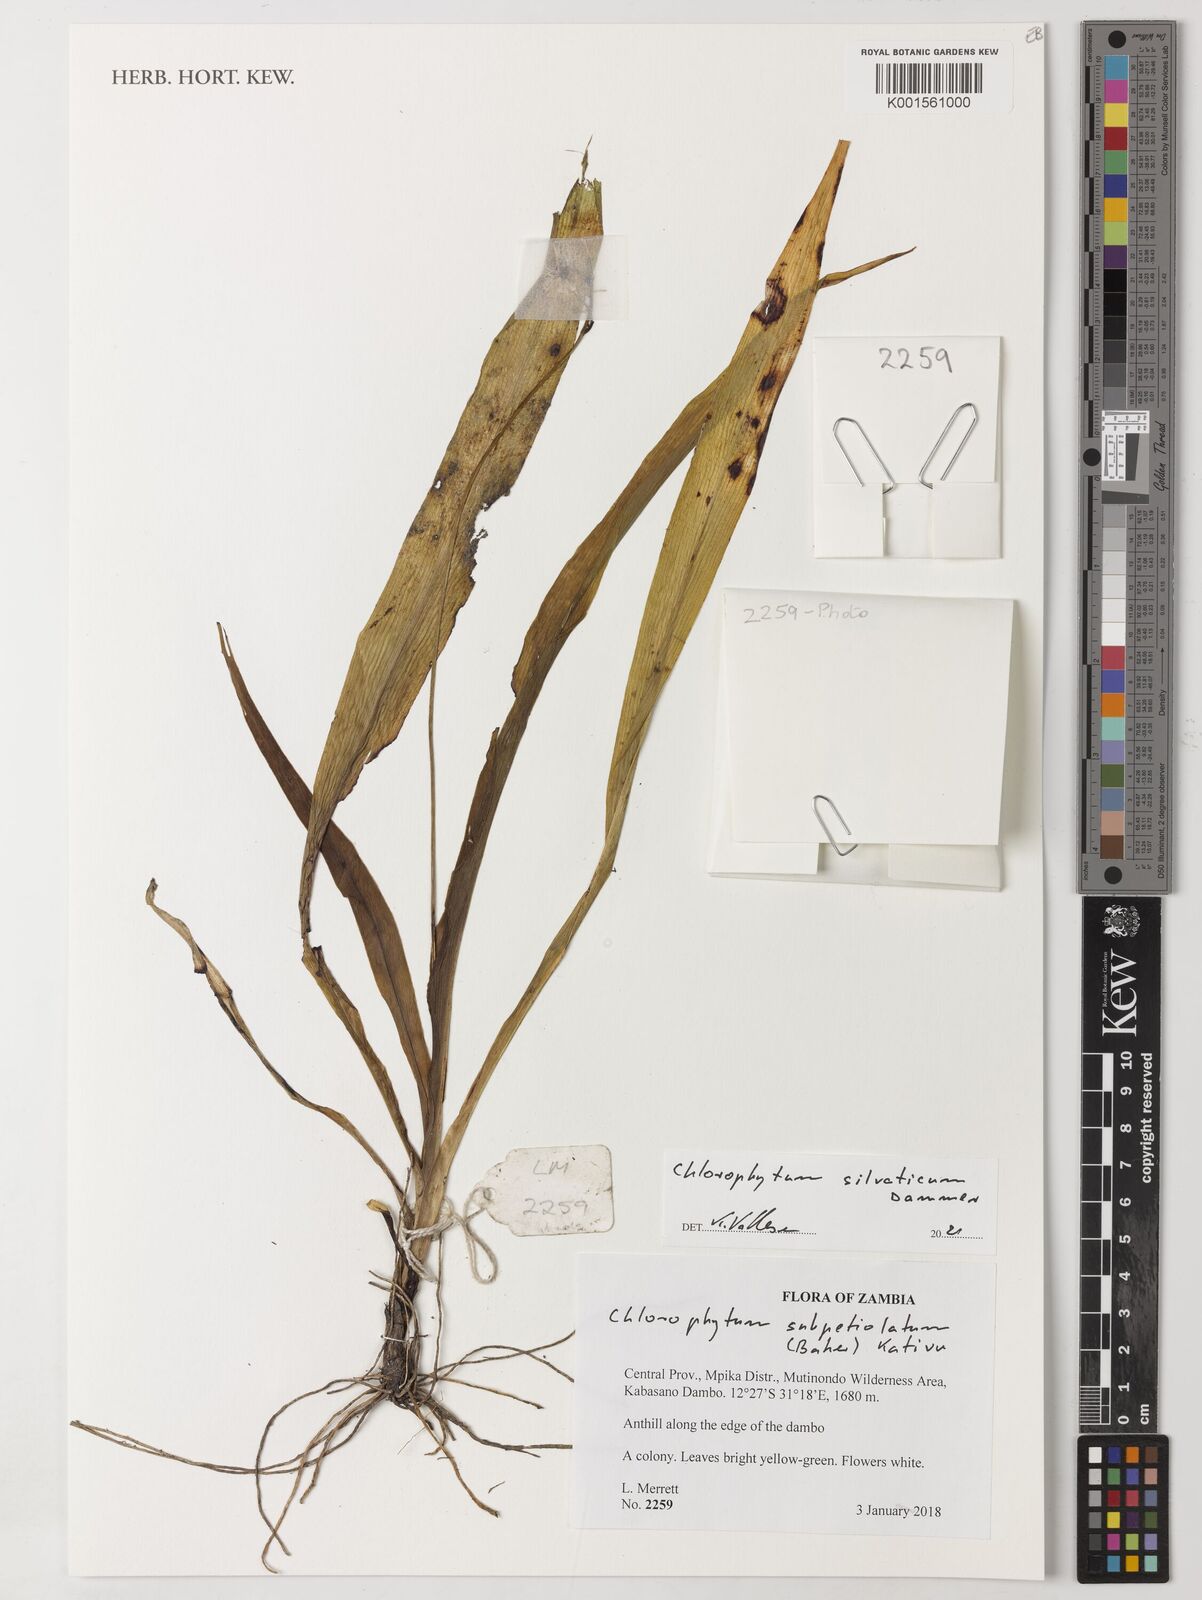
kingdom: Plantae
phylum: Tracheophyta
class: Liliopsida
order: Asparagales
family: Asparagaceae
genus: Chlorophytum
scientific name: Chlorophytum africanum
